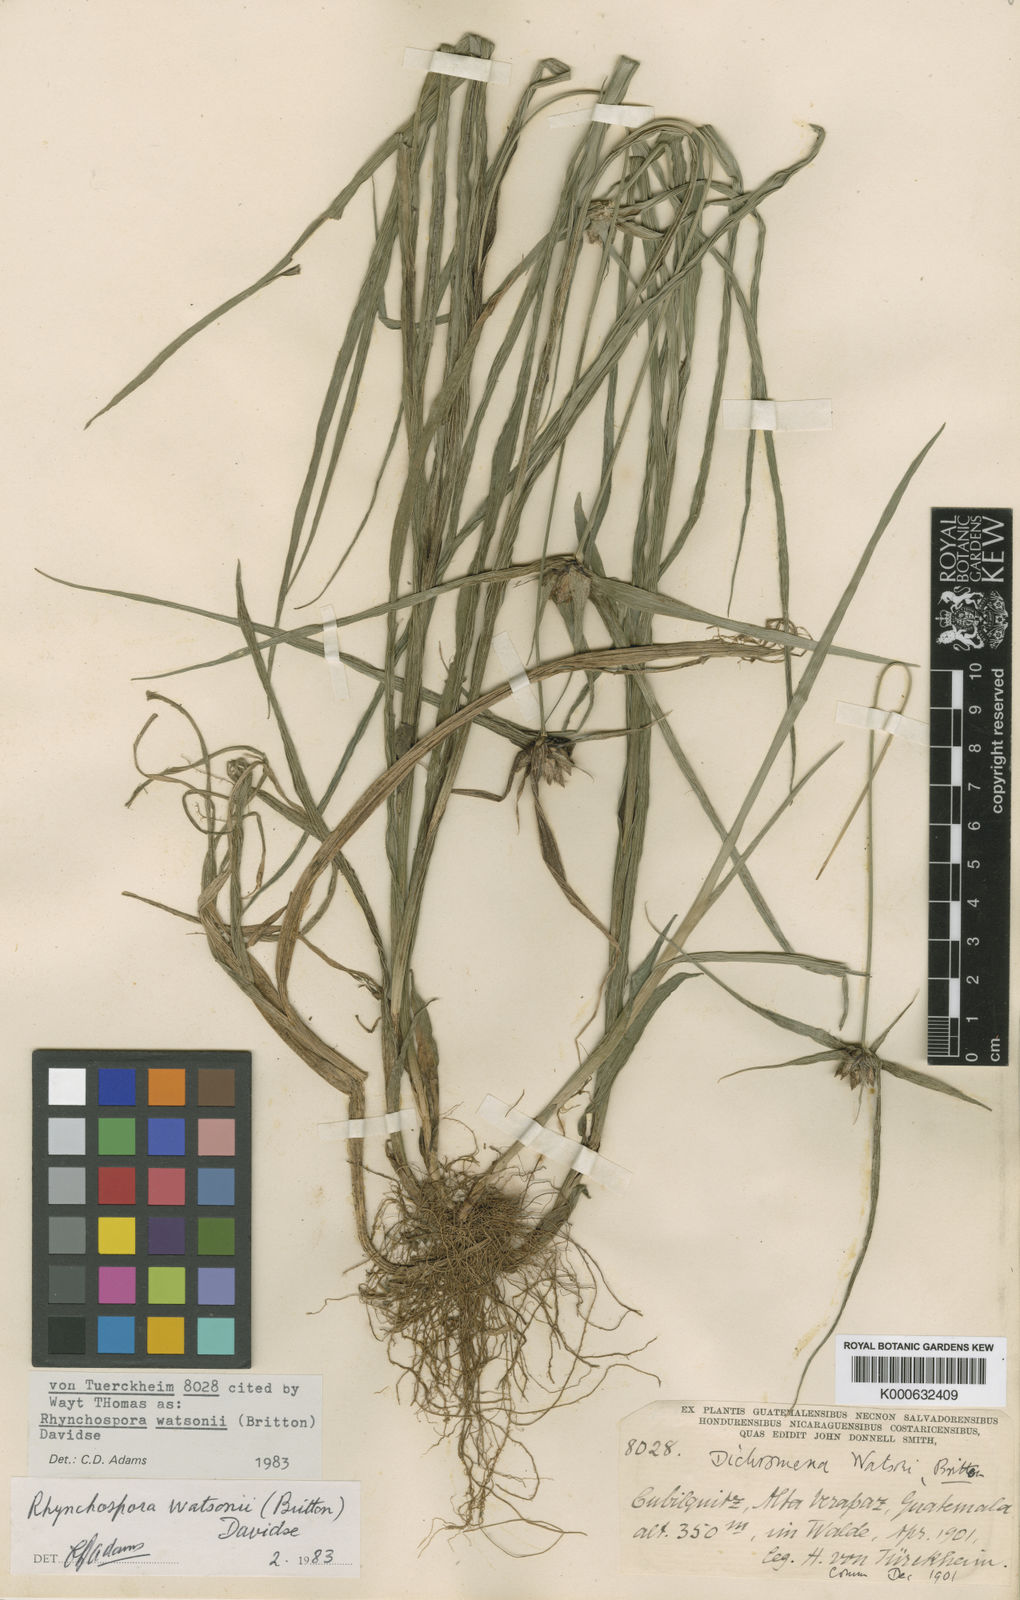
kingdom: Plantae
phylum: Tracheophyta
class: Liliopsida
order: Poales
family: Cyperaceae
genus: Rhynchospora
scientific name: Rhynchospora watsonii
